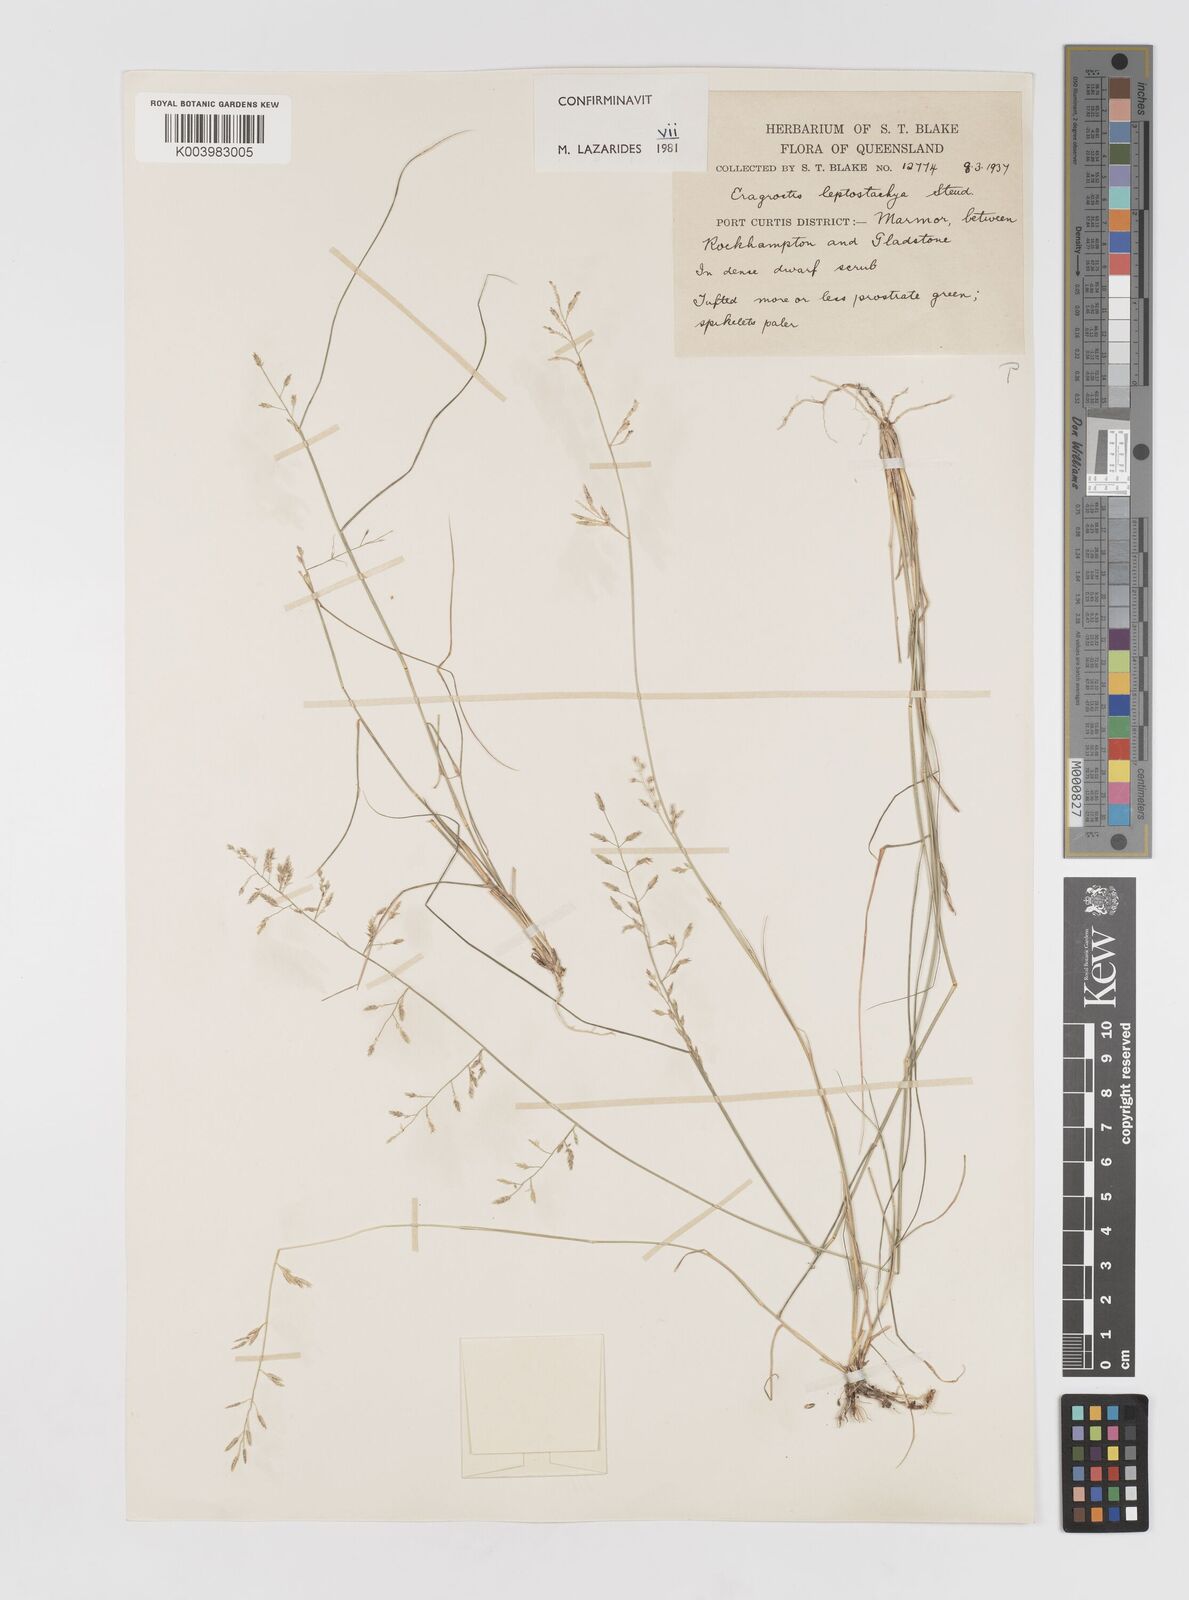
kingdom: Plantae
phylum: Tracheophyta
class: Liliopsida
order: Poales
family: Poaceae
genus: Eragrostis
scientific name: Eragrostis leptostachya
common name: Australian lovegrass
